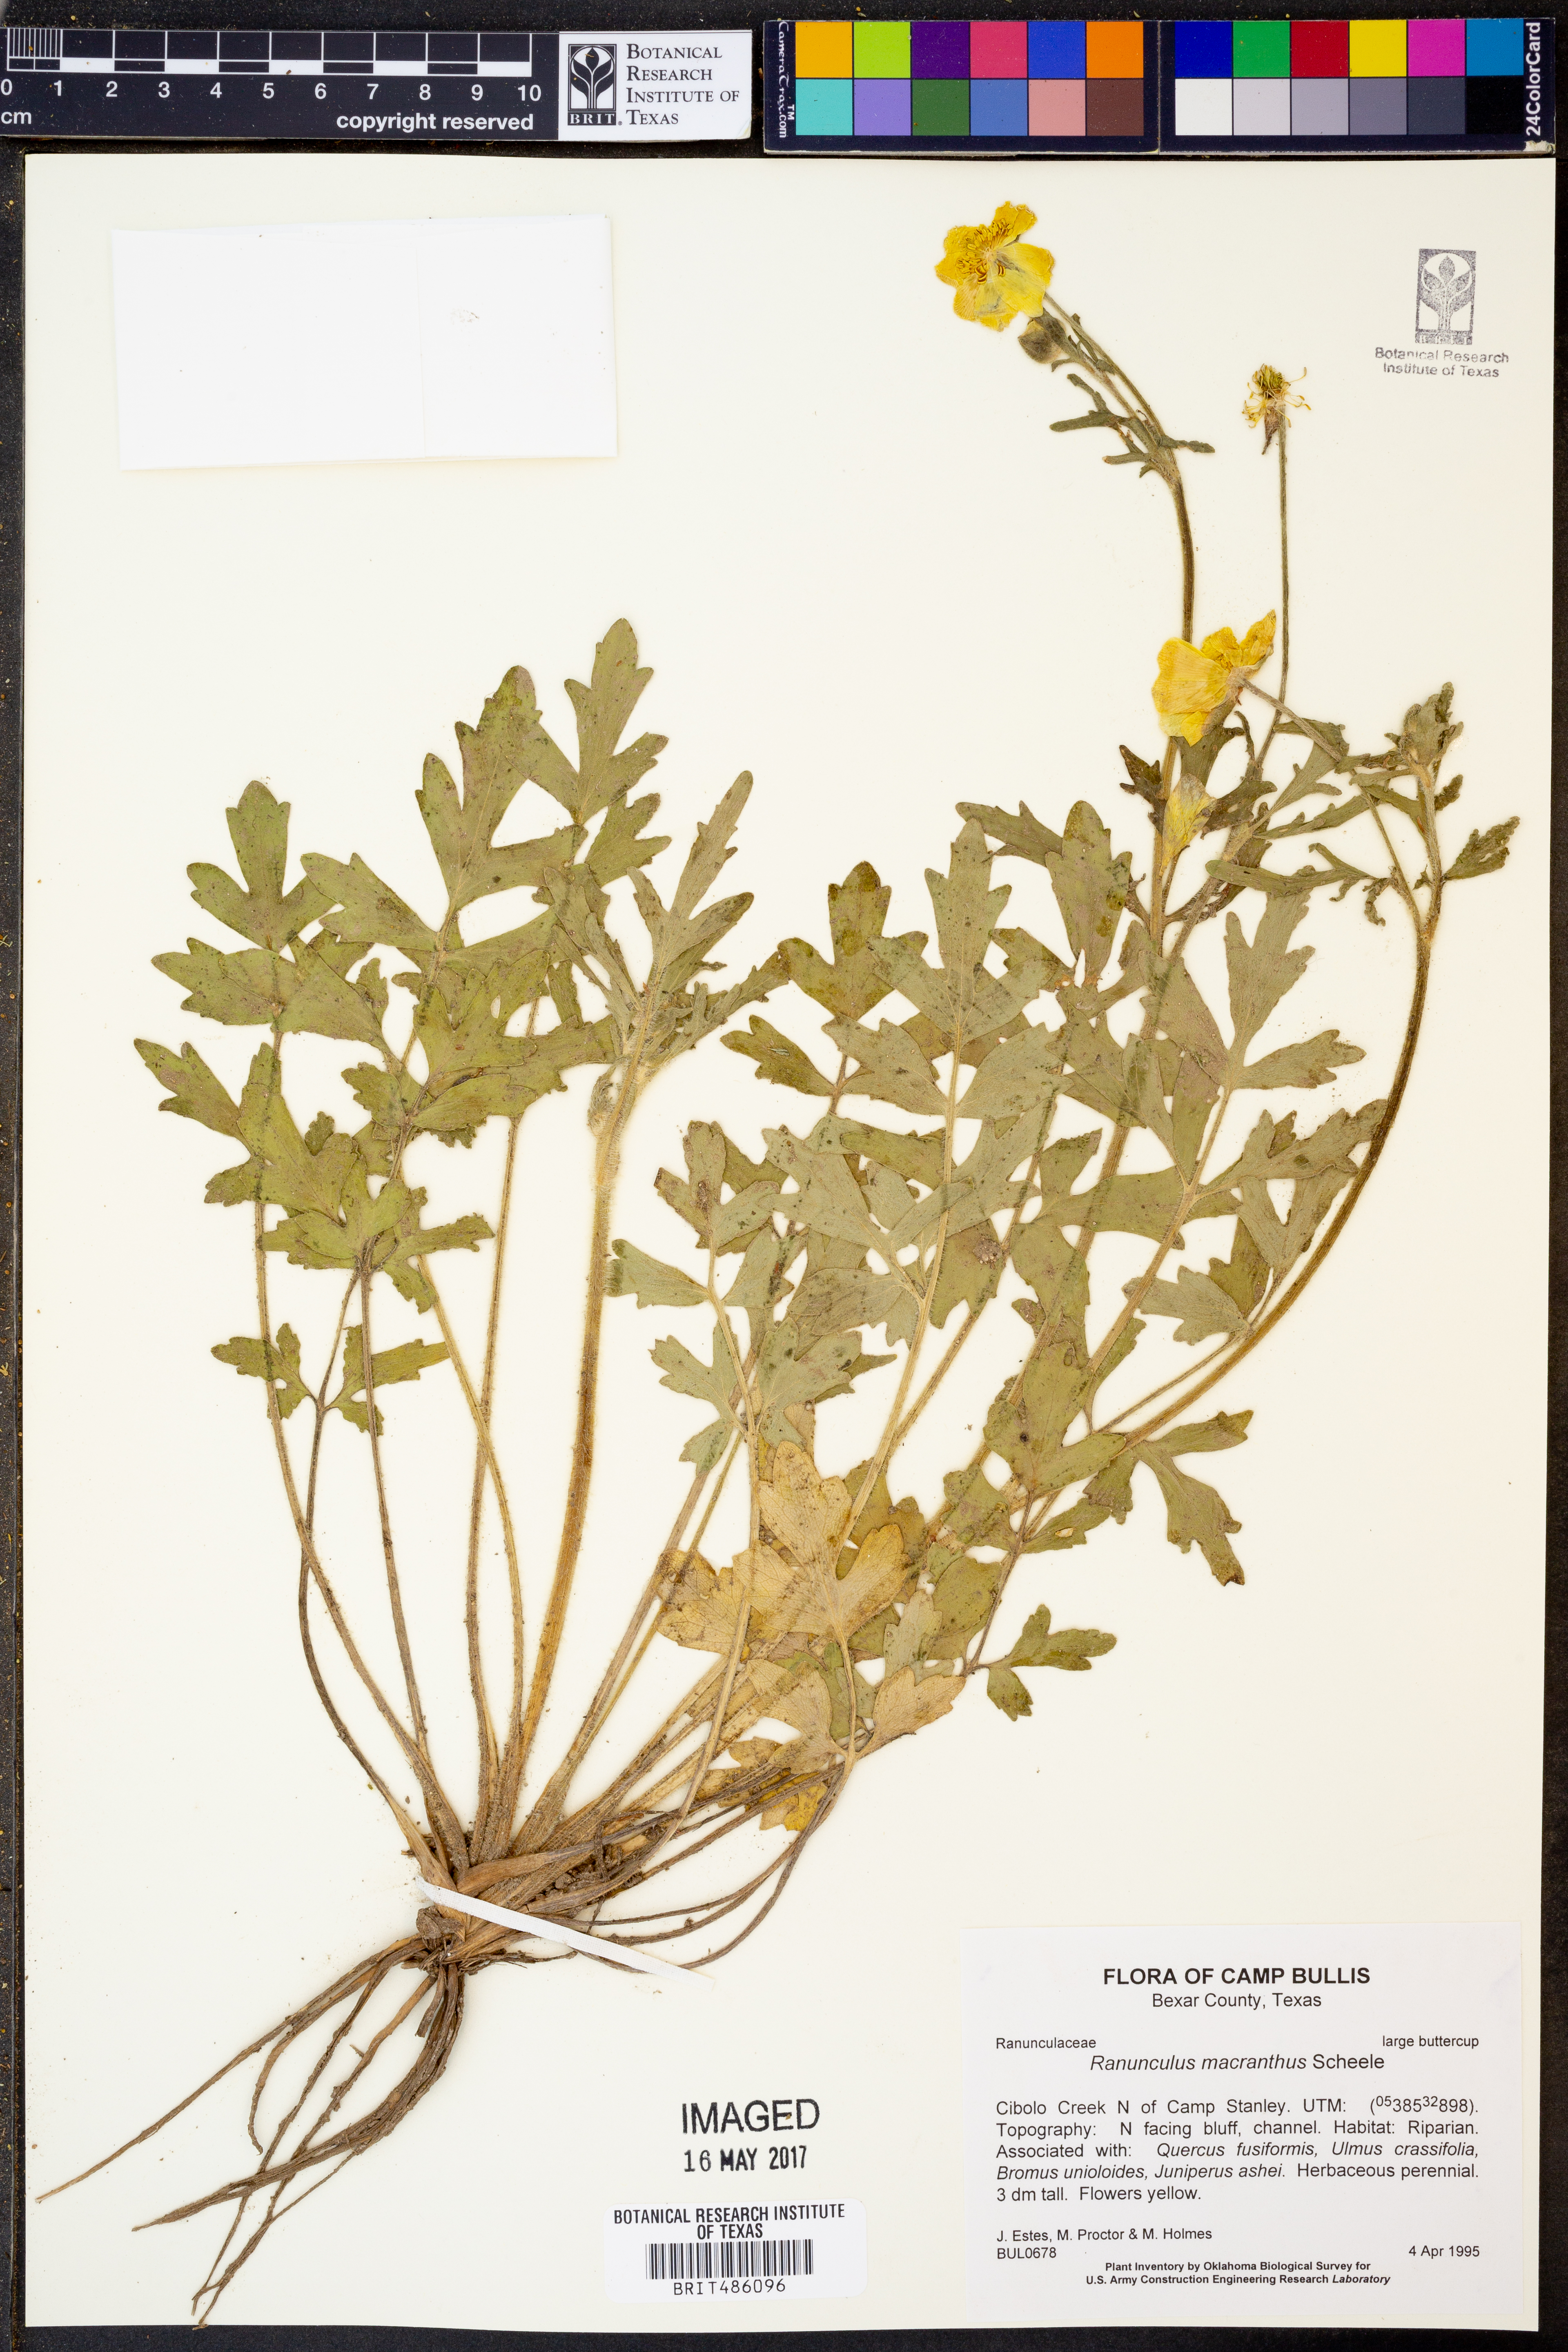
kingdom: Plantae
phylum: Tracheophyta
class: Magnoliopsida
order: Ranunculales
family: Ranunculaceae
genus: Ranunculus
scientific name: Ranunculus macranthus
